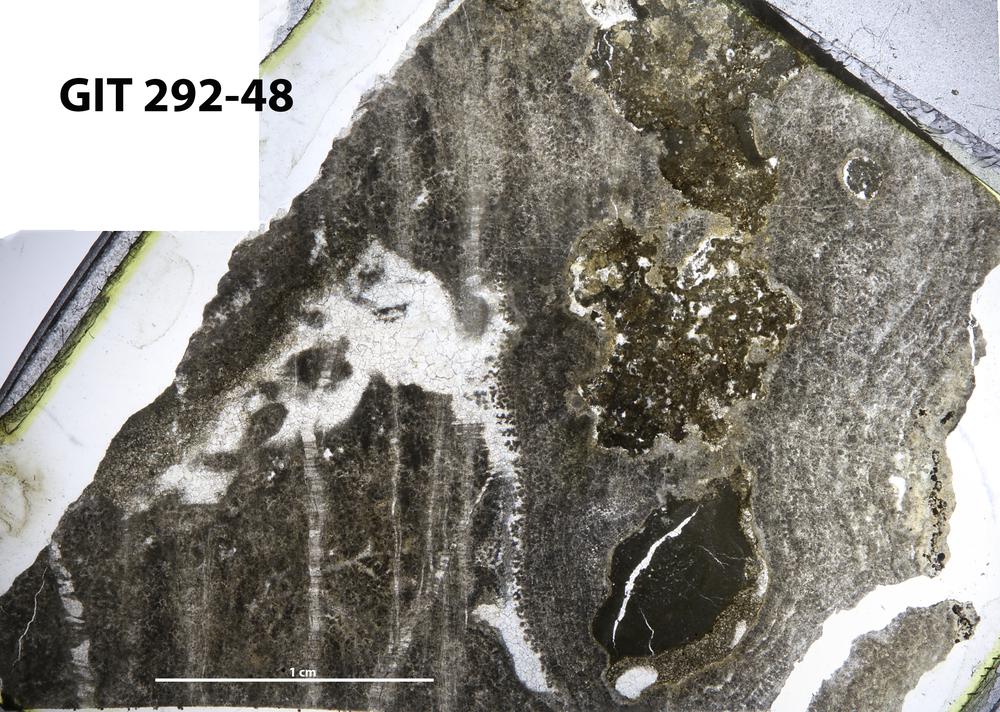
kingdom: Animalia
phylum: Porifera
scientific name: Porifera
